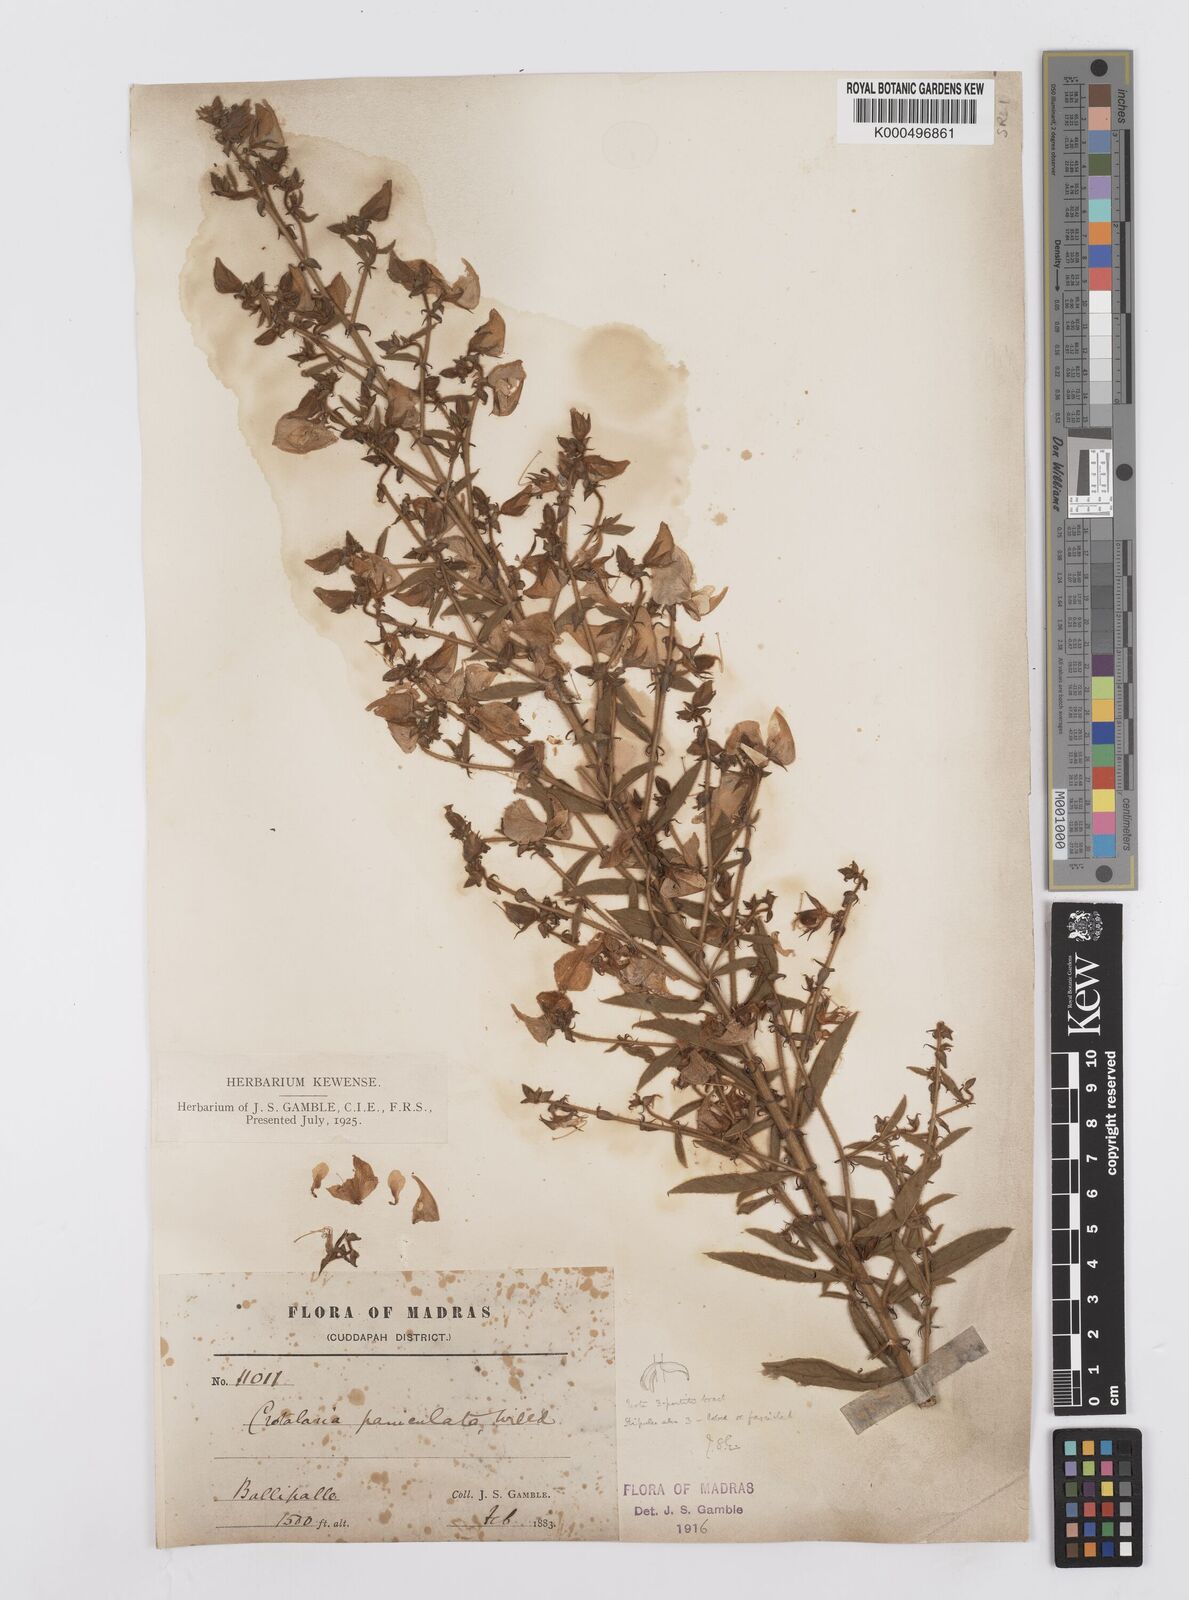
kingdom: Plantae
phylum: Tracheophyta
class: Magnoliopsida
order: Fabales
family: Fabaceae
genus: Crotalaria
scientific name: Crotalaria paniculata
